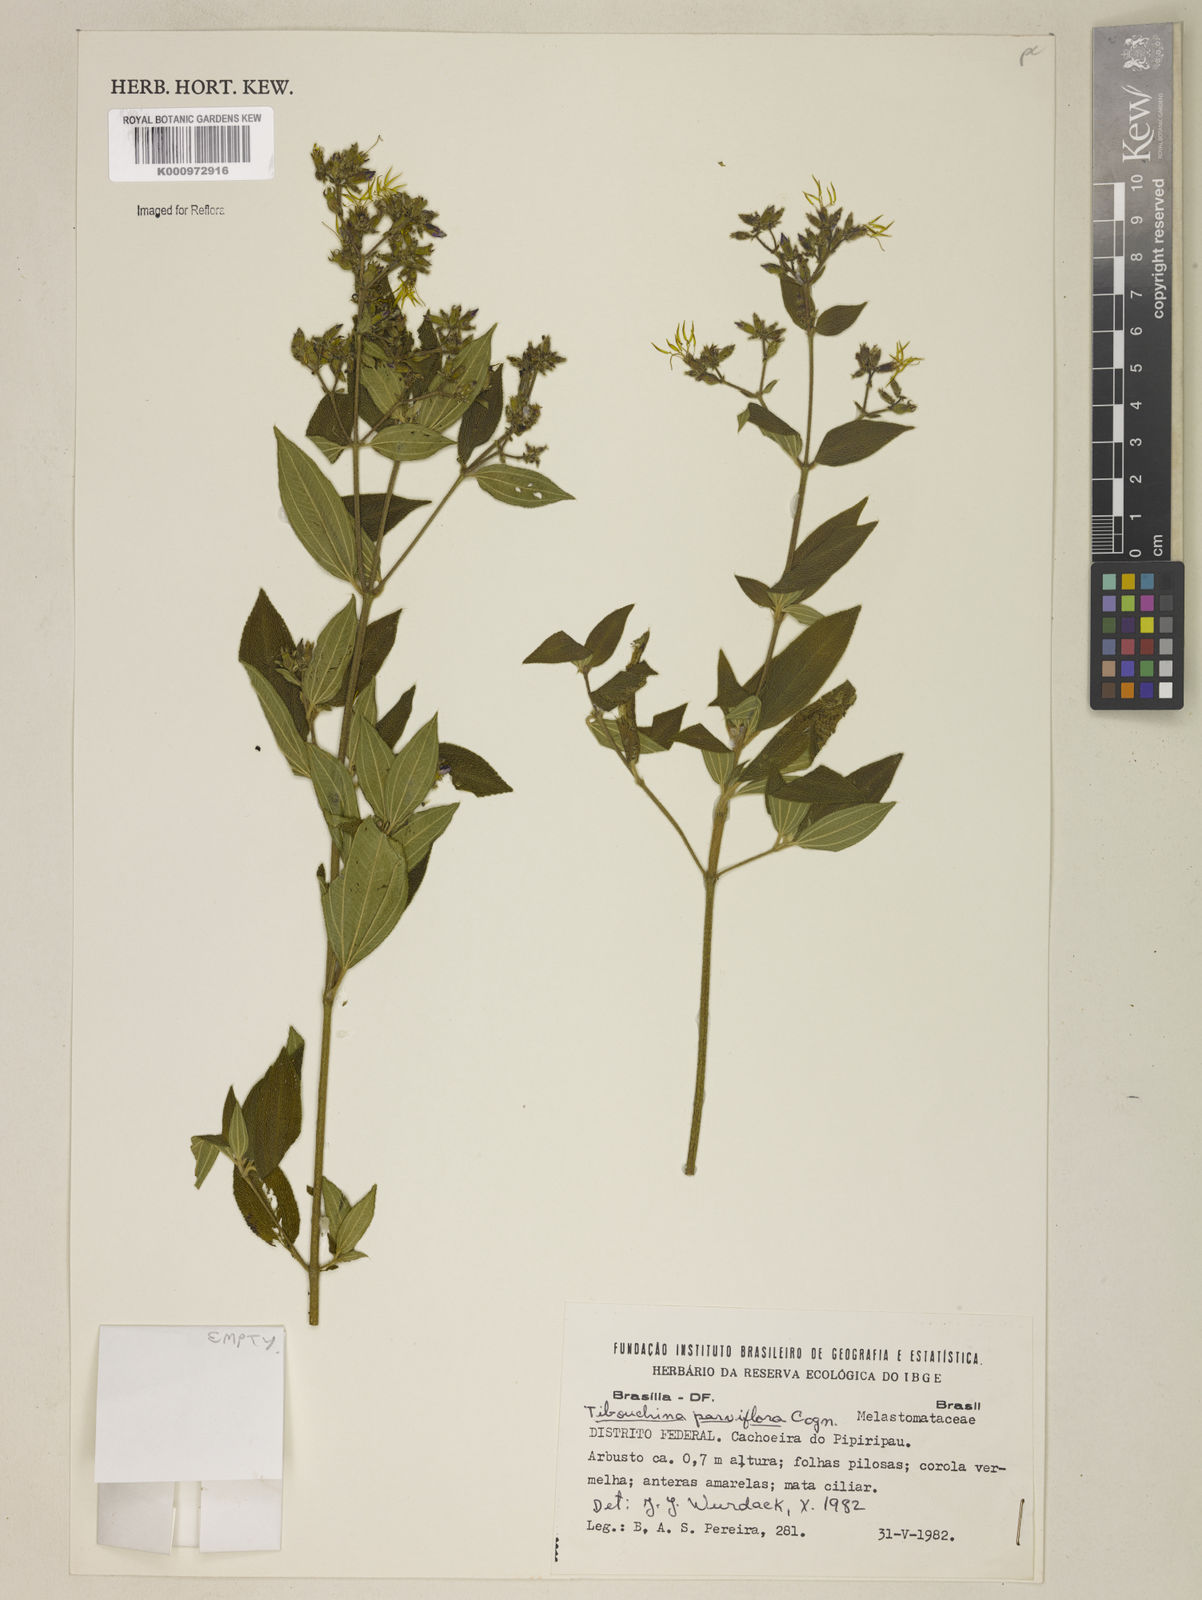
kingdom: Plantae
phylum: Tracheophyta
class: Magnoliopsida
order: Myrtales
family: Melastomataceae
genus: Chaetogastra
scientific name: Chaetogastra parviflora
